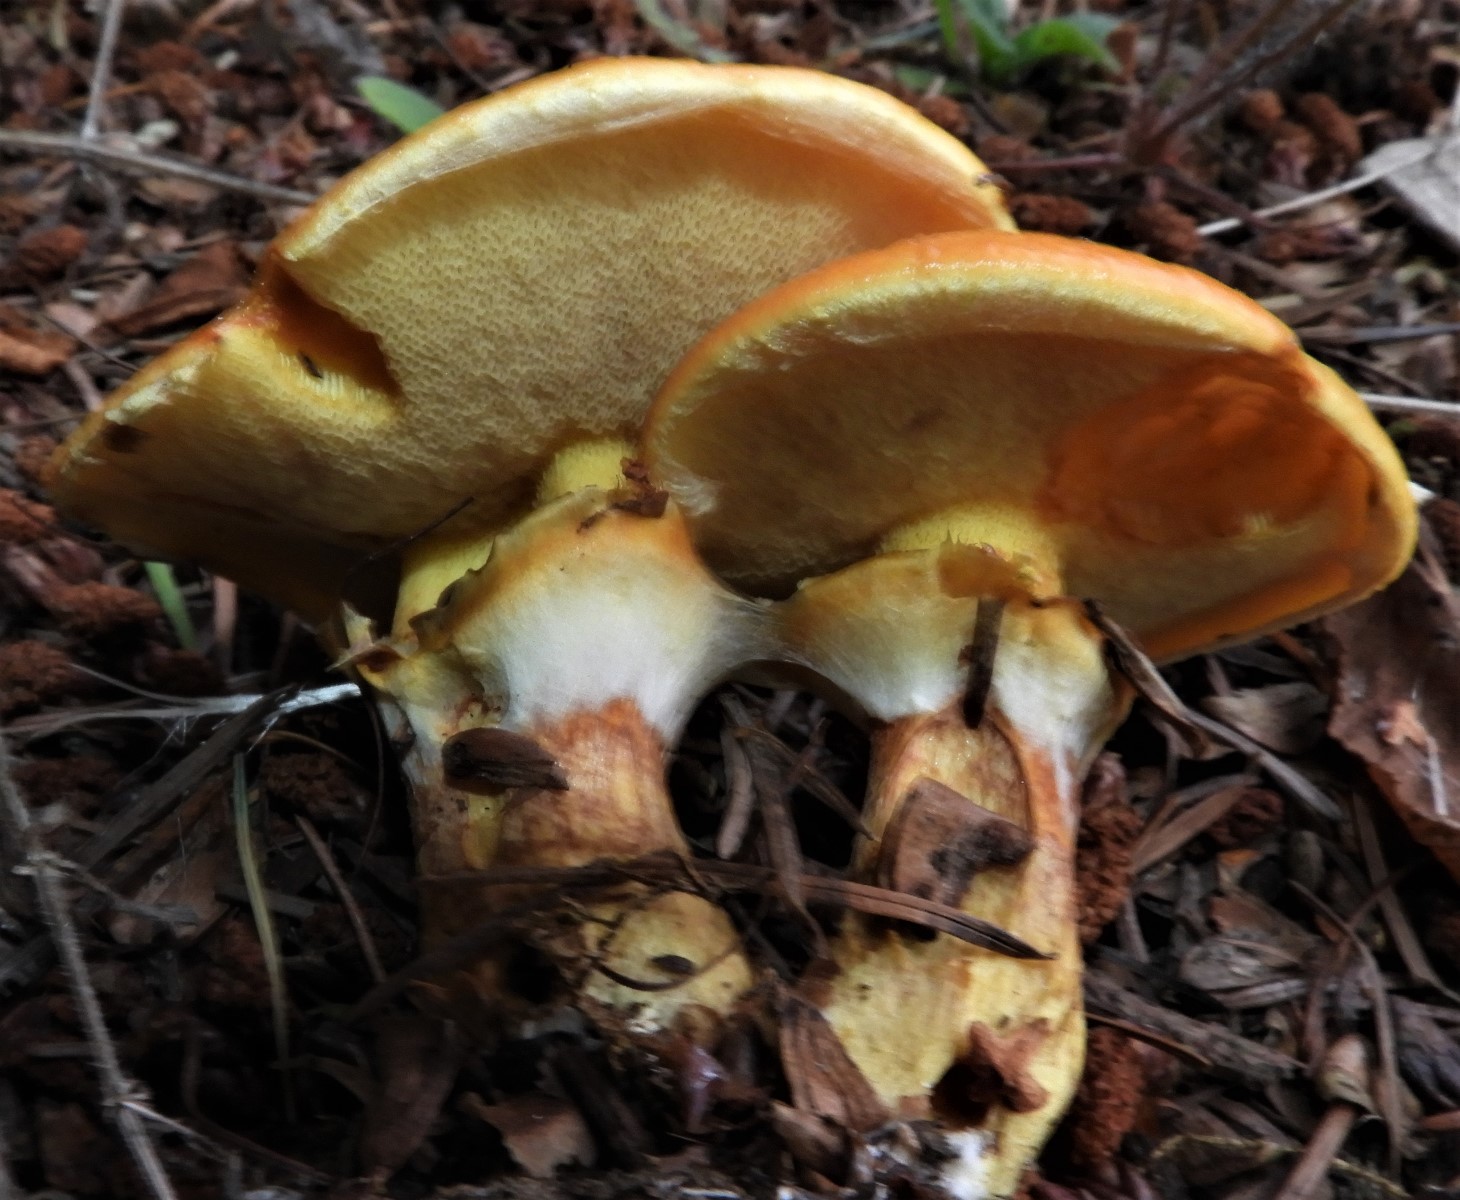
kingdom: Fungi
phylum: Basidiomycota
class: Agaricomycetes
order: Boletales
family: Suillaceae
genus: Suillus
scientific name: Suillus grevillei
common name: lærke-slimrørhat
